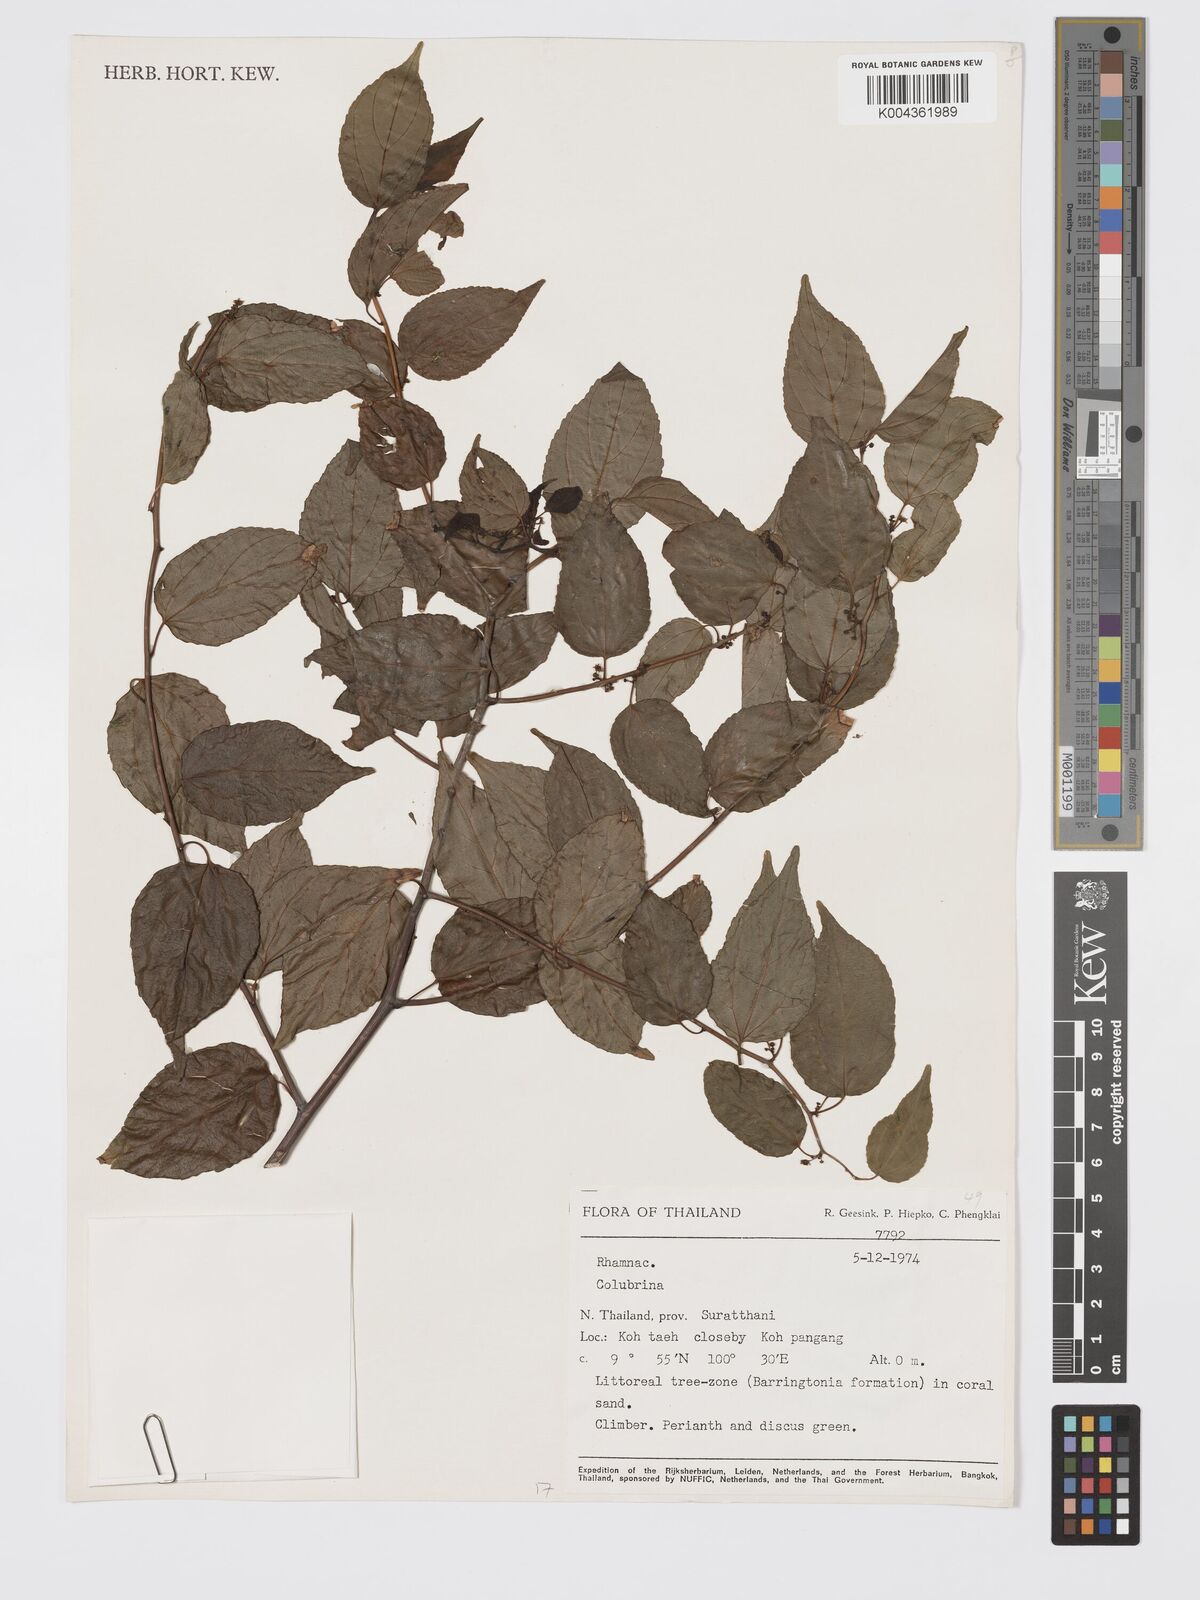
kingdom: Plantae
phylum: Tracheophyta
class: Magnoliopsida
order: Rosales
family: Rhamnaceae
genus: Colubrina
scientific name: Colubrina
